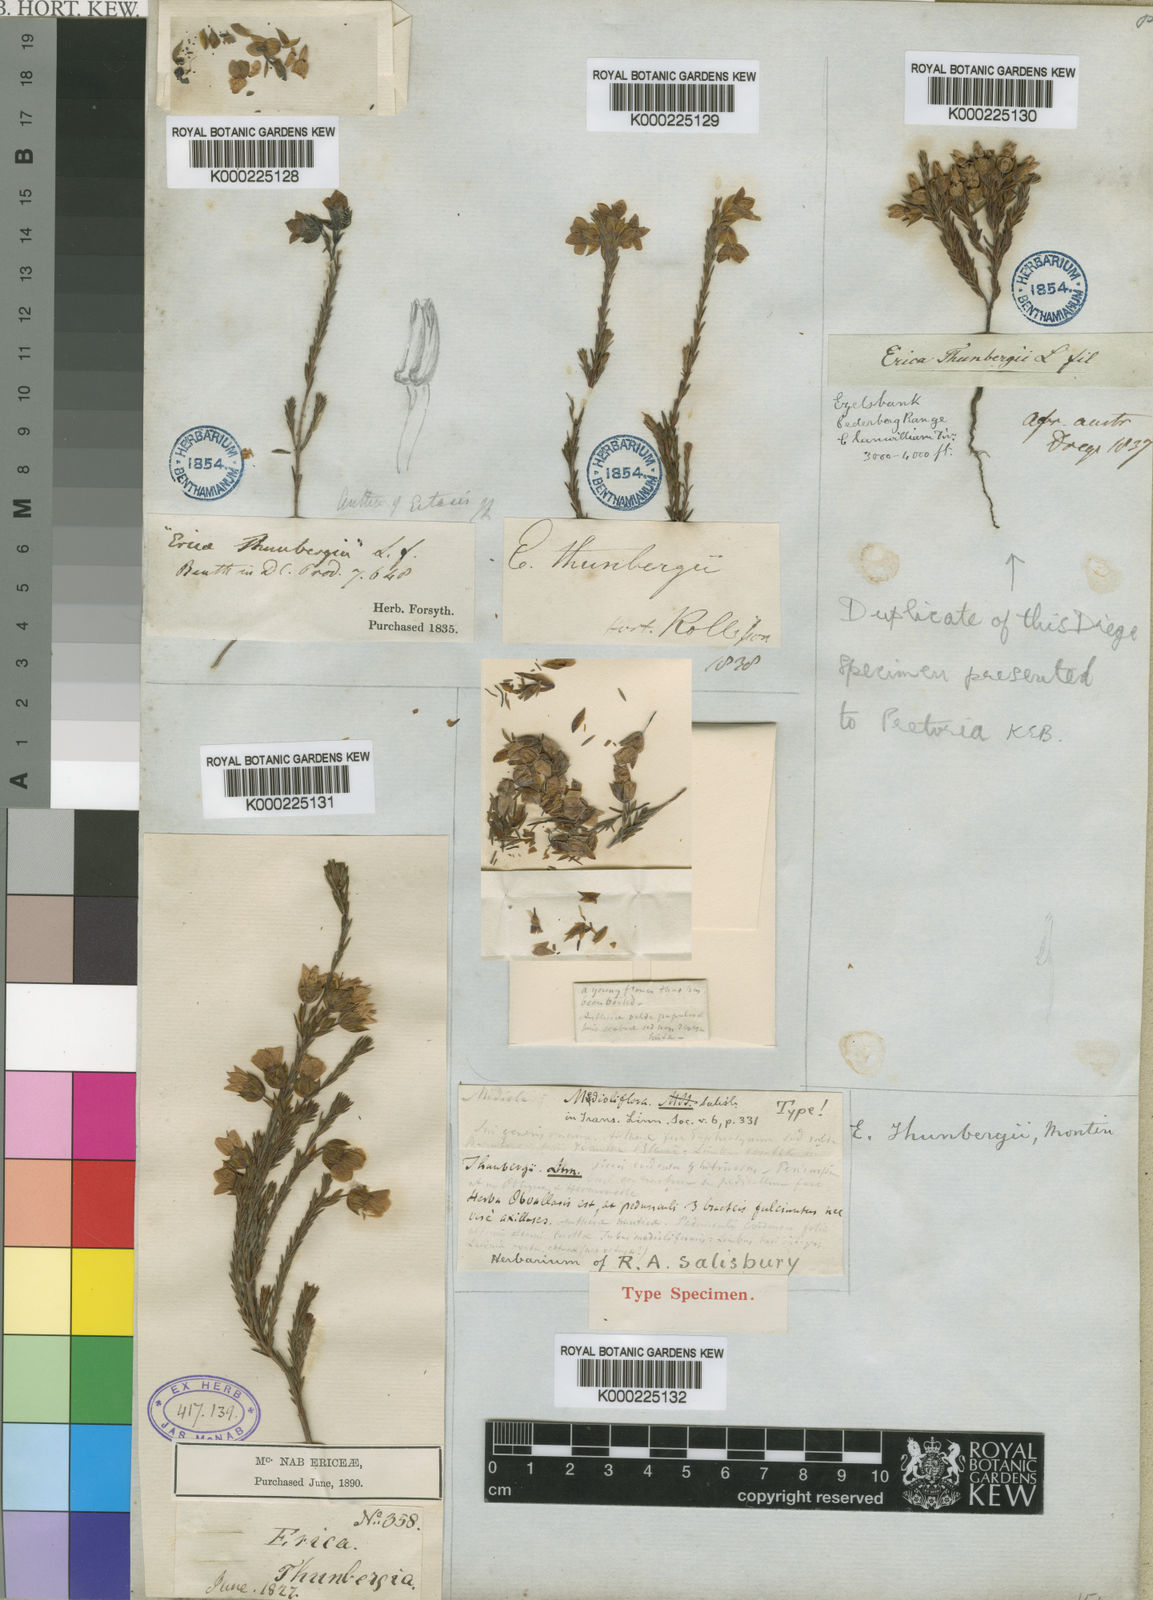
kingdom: Plantae
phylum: Tracheophyta
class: Magnoliopsida
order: Ericales
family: Ericaceae
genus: Erica
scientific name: Erica thunbergii
